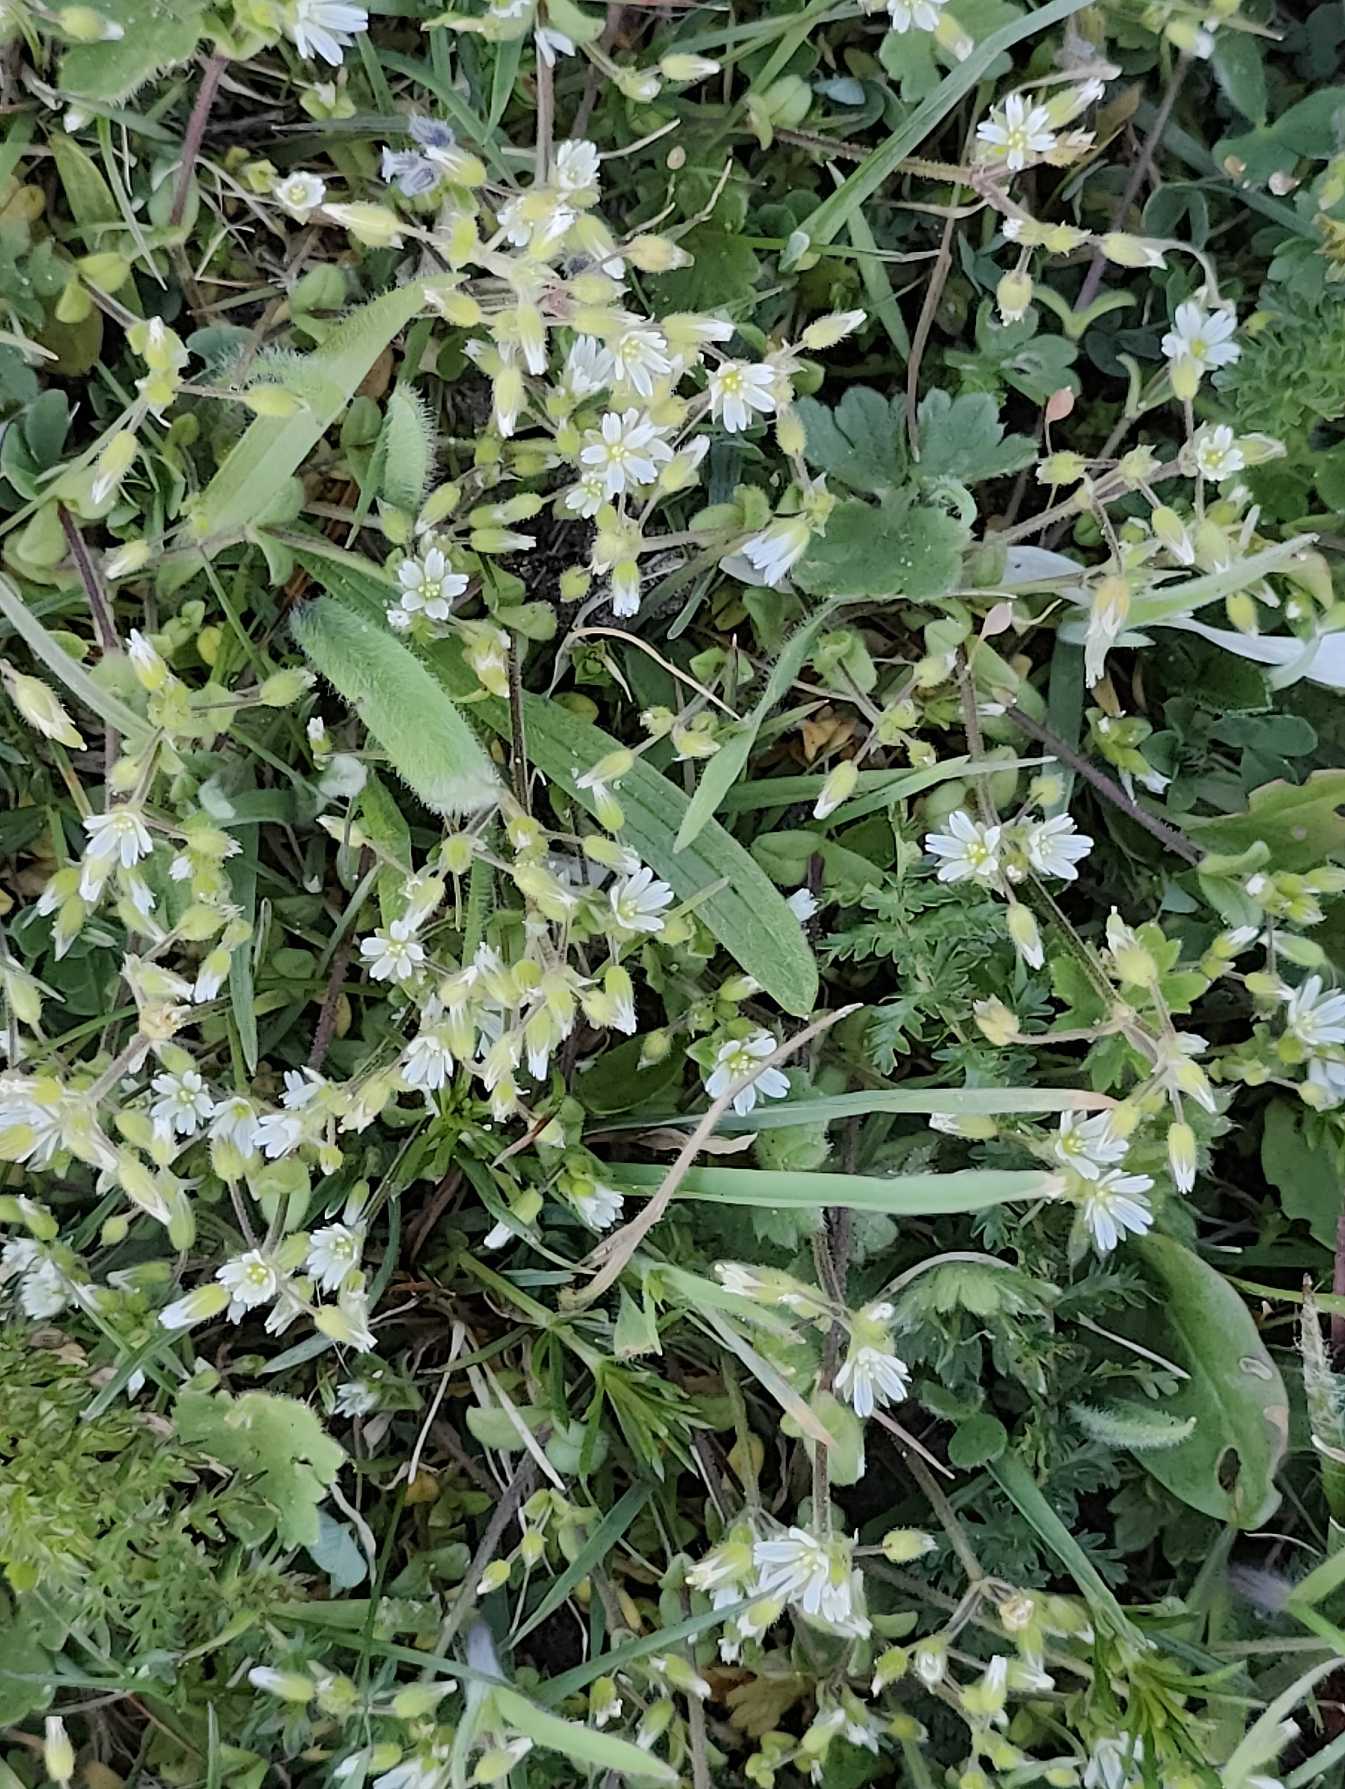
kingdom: Plantae
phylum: Tracheophyta
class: Magnoliopsida
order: Caryophyllales
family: Caryophyllaceae
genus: Cerastium
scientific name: Cerastium semidecandrum
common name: Femhannet hønsetarm
